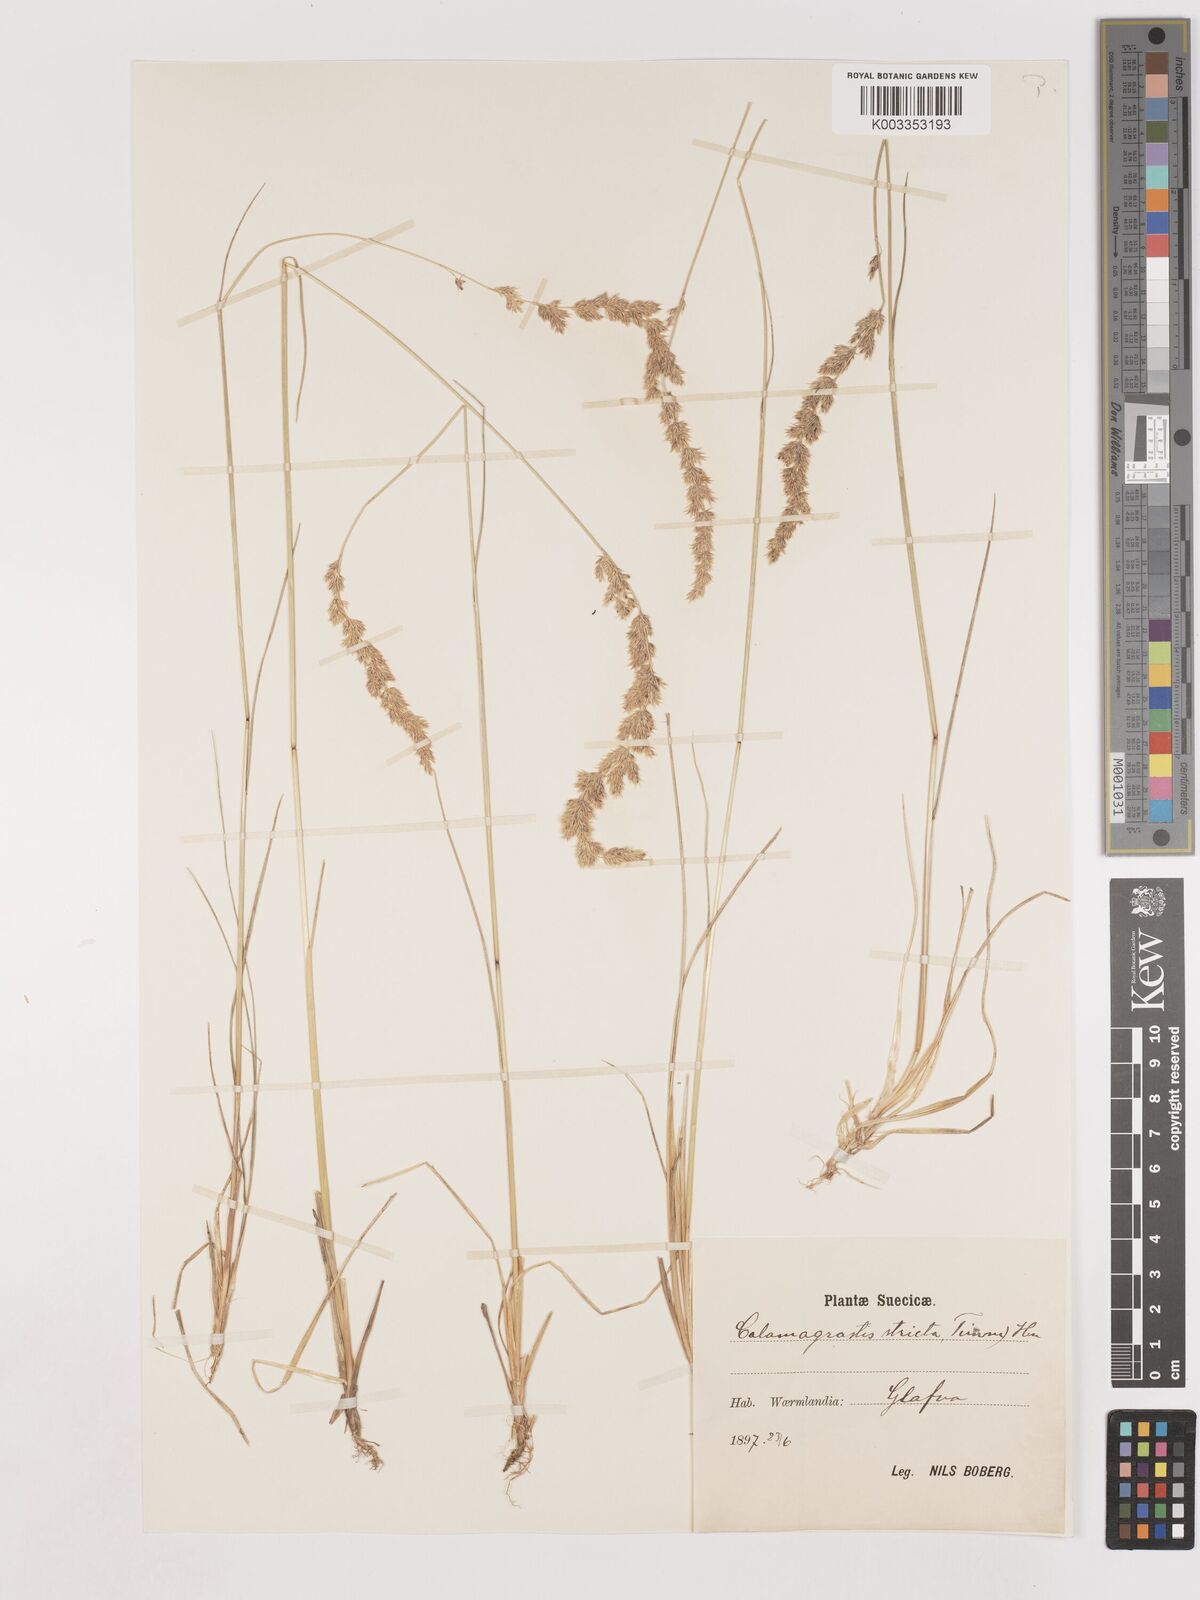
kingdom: Plantae
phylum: Tracheophyta
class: Liliopsida
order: Poales
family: Poaceae
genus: Cinnagrostis
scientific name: Cinnagrostis recta
